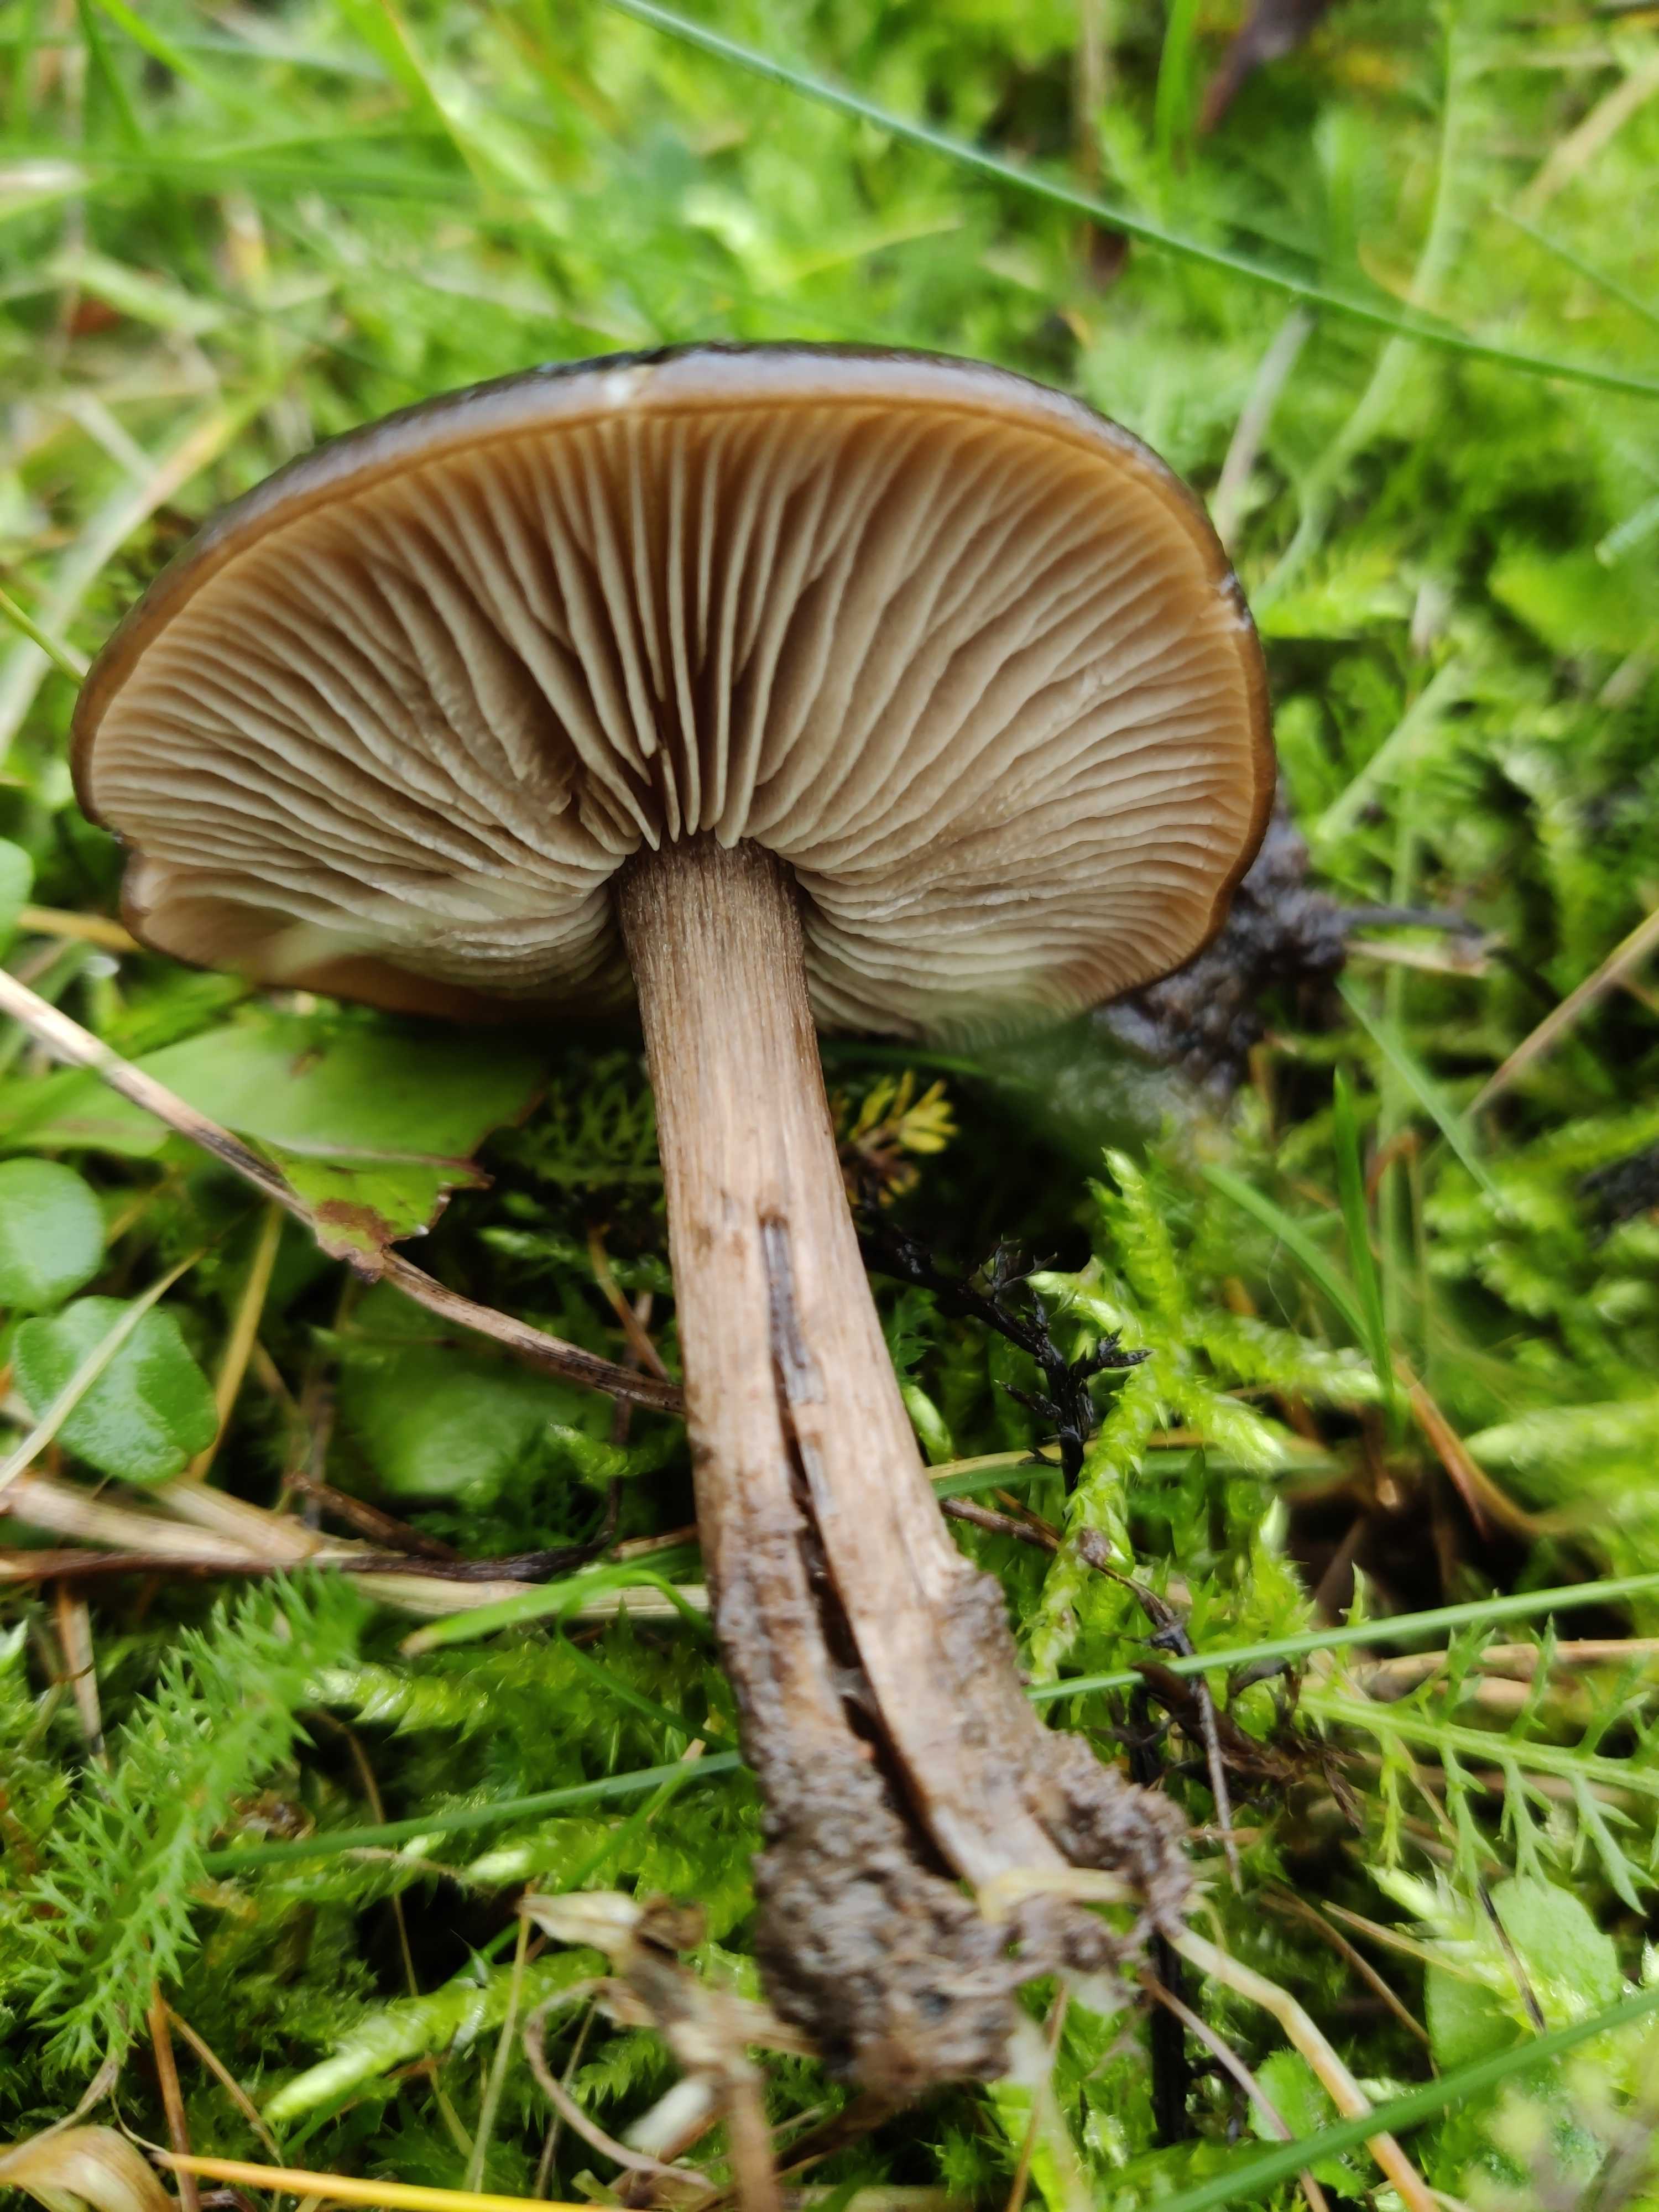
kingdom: Fungi
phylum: Basidiomycota
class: Agaricomycetes
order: Agaricales
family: Entolomataceae
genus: Entoloma
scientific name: Entoloma
